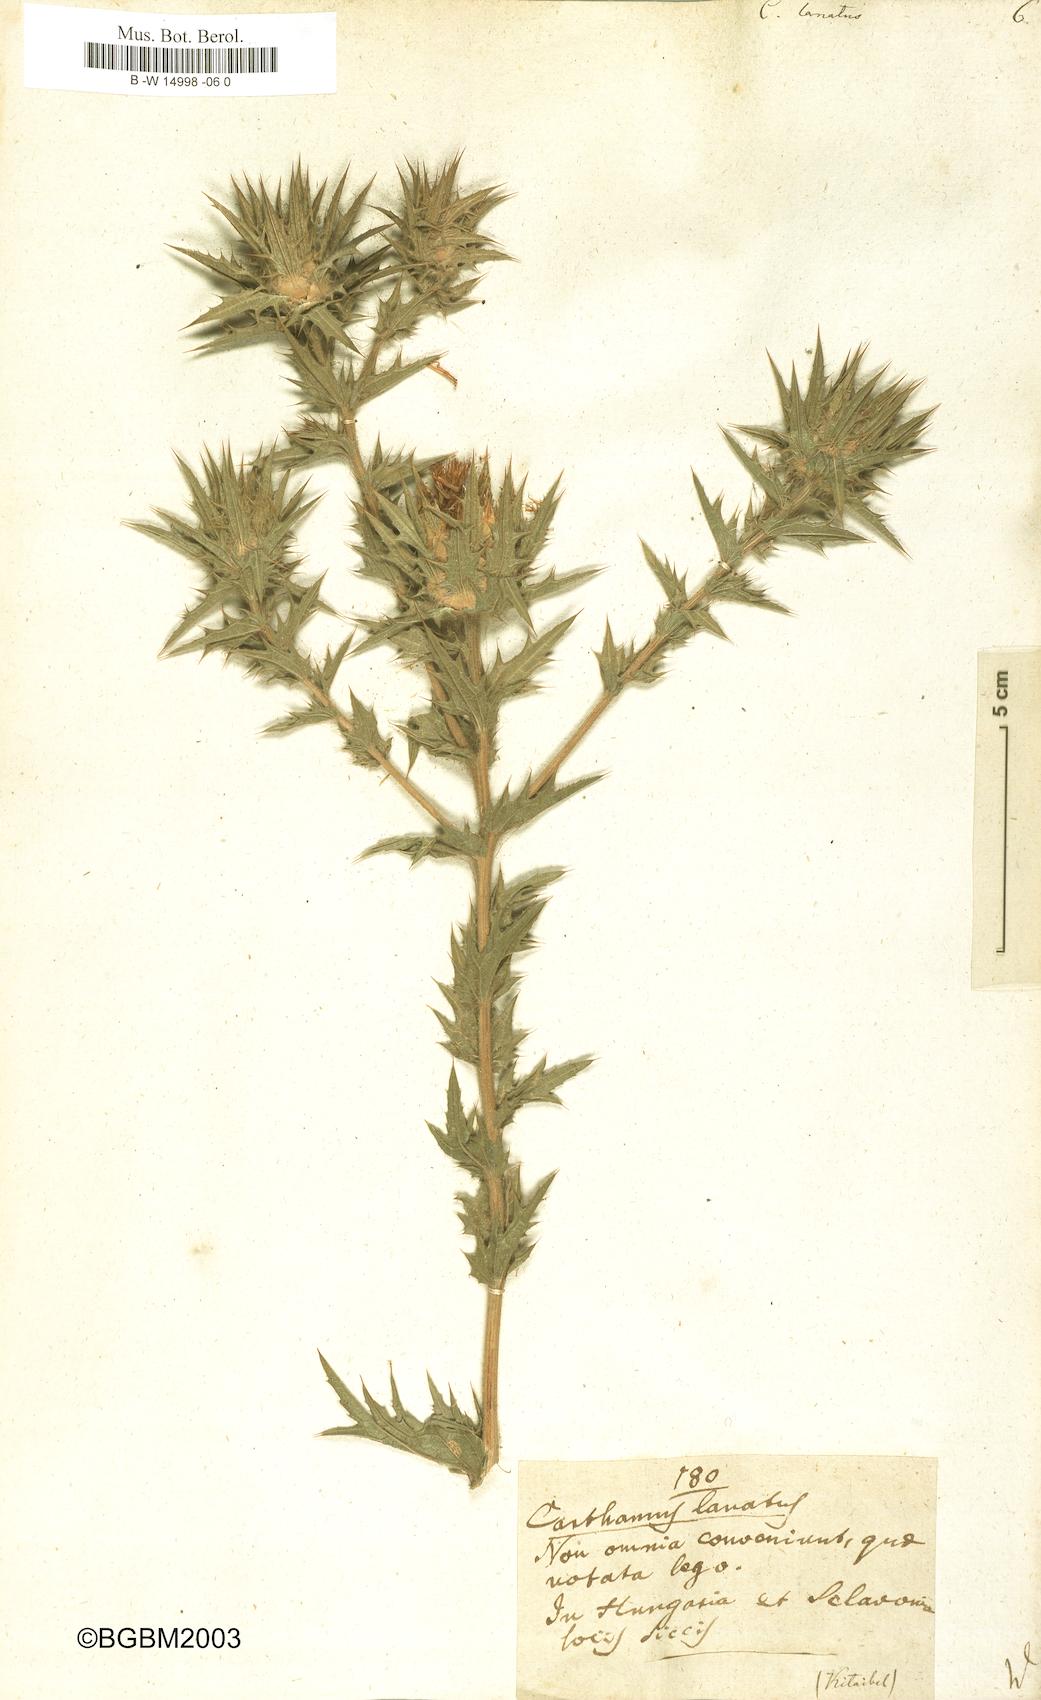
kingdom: Plantae
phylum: Tracheophyta
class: Magnoliopsida
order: Asterales
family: Asteraceae
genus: Carthamus
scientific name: Carthamus lanatus
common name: Downy safflower
